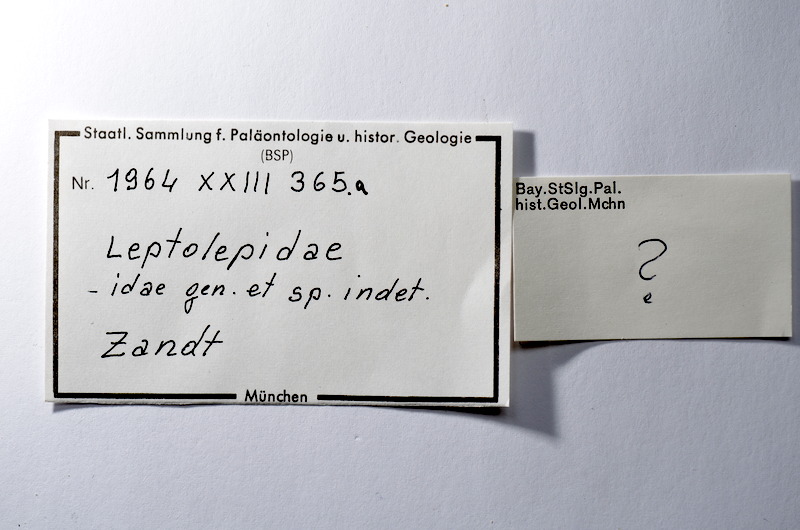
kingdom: Animalia
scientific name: Animalia
